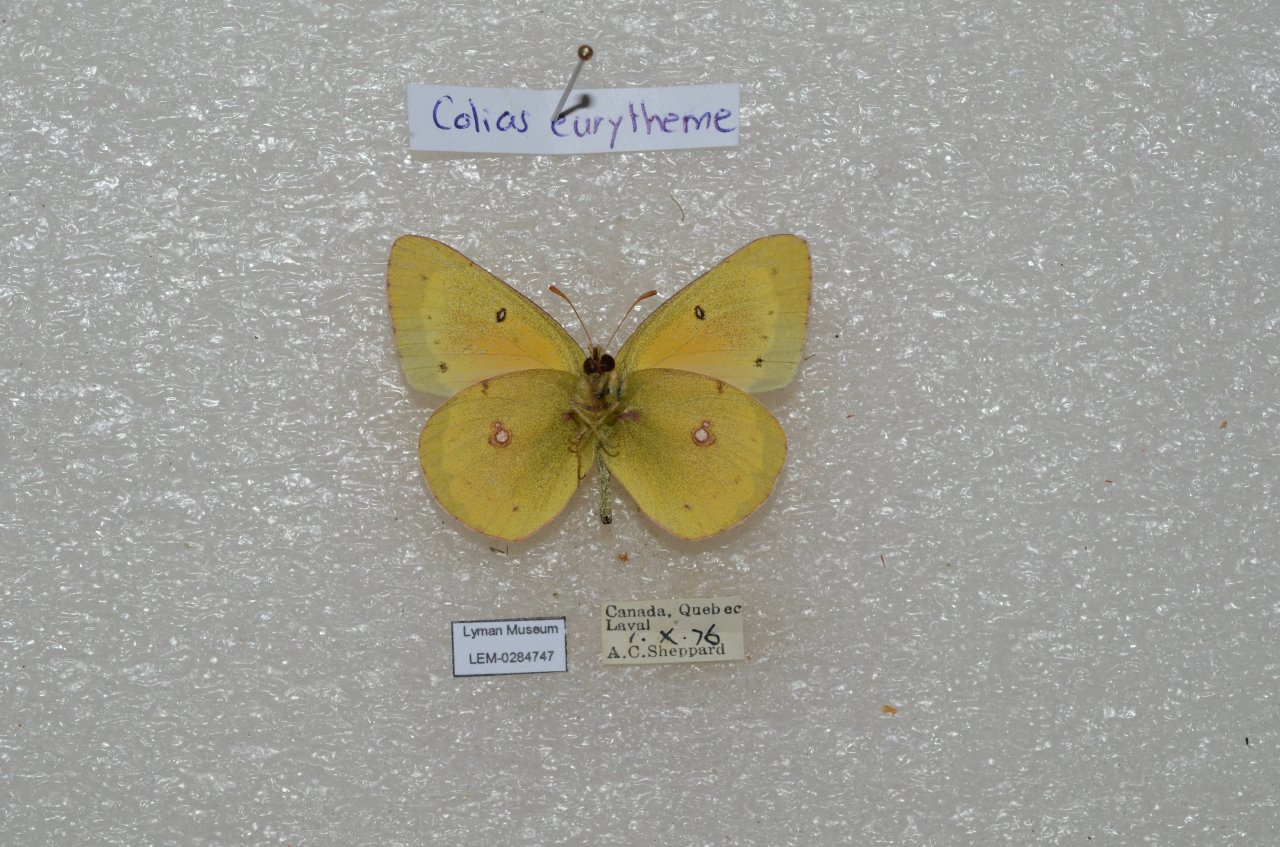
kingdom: Animalia
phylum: Arthropoda
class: Insecta
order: Lepidoptera
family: Pieridae
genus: Colias
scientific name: Colias eurytheme
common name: Orange Sulphur
